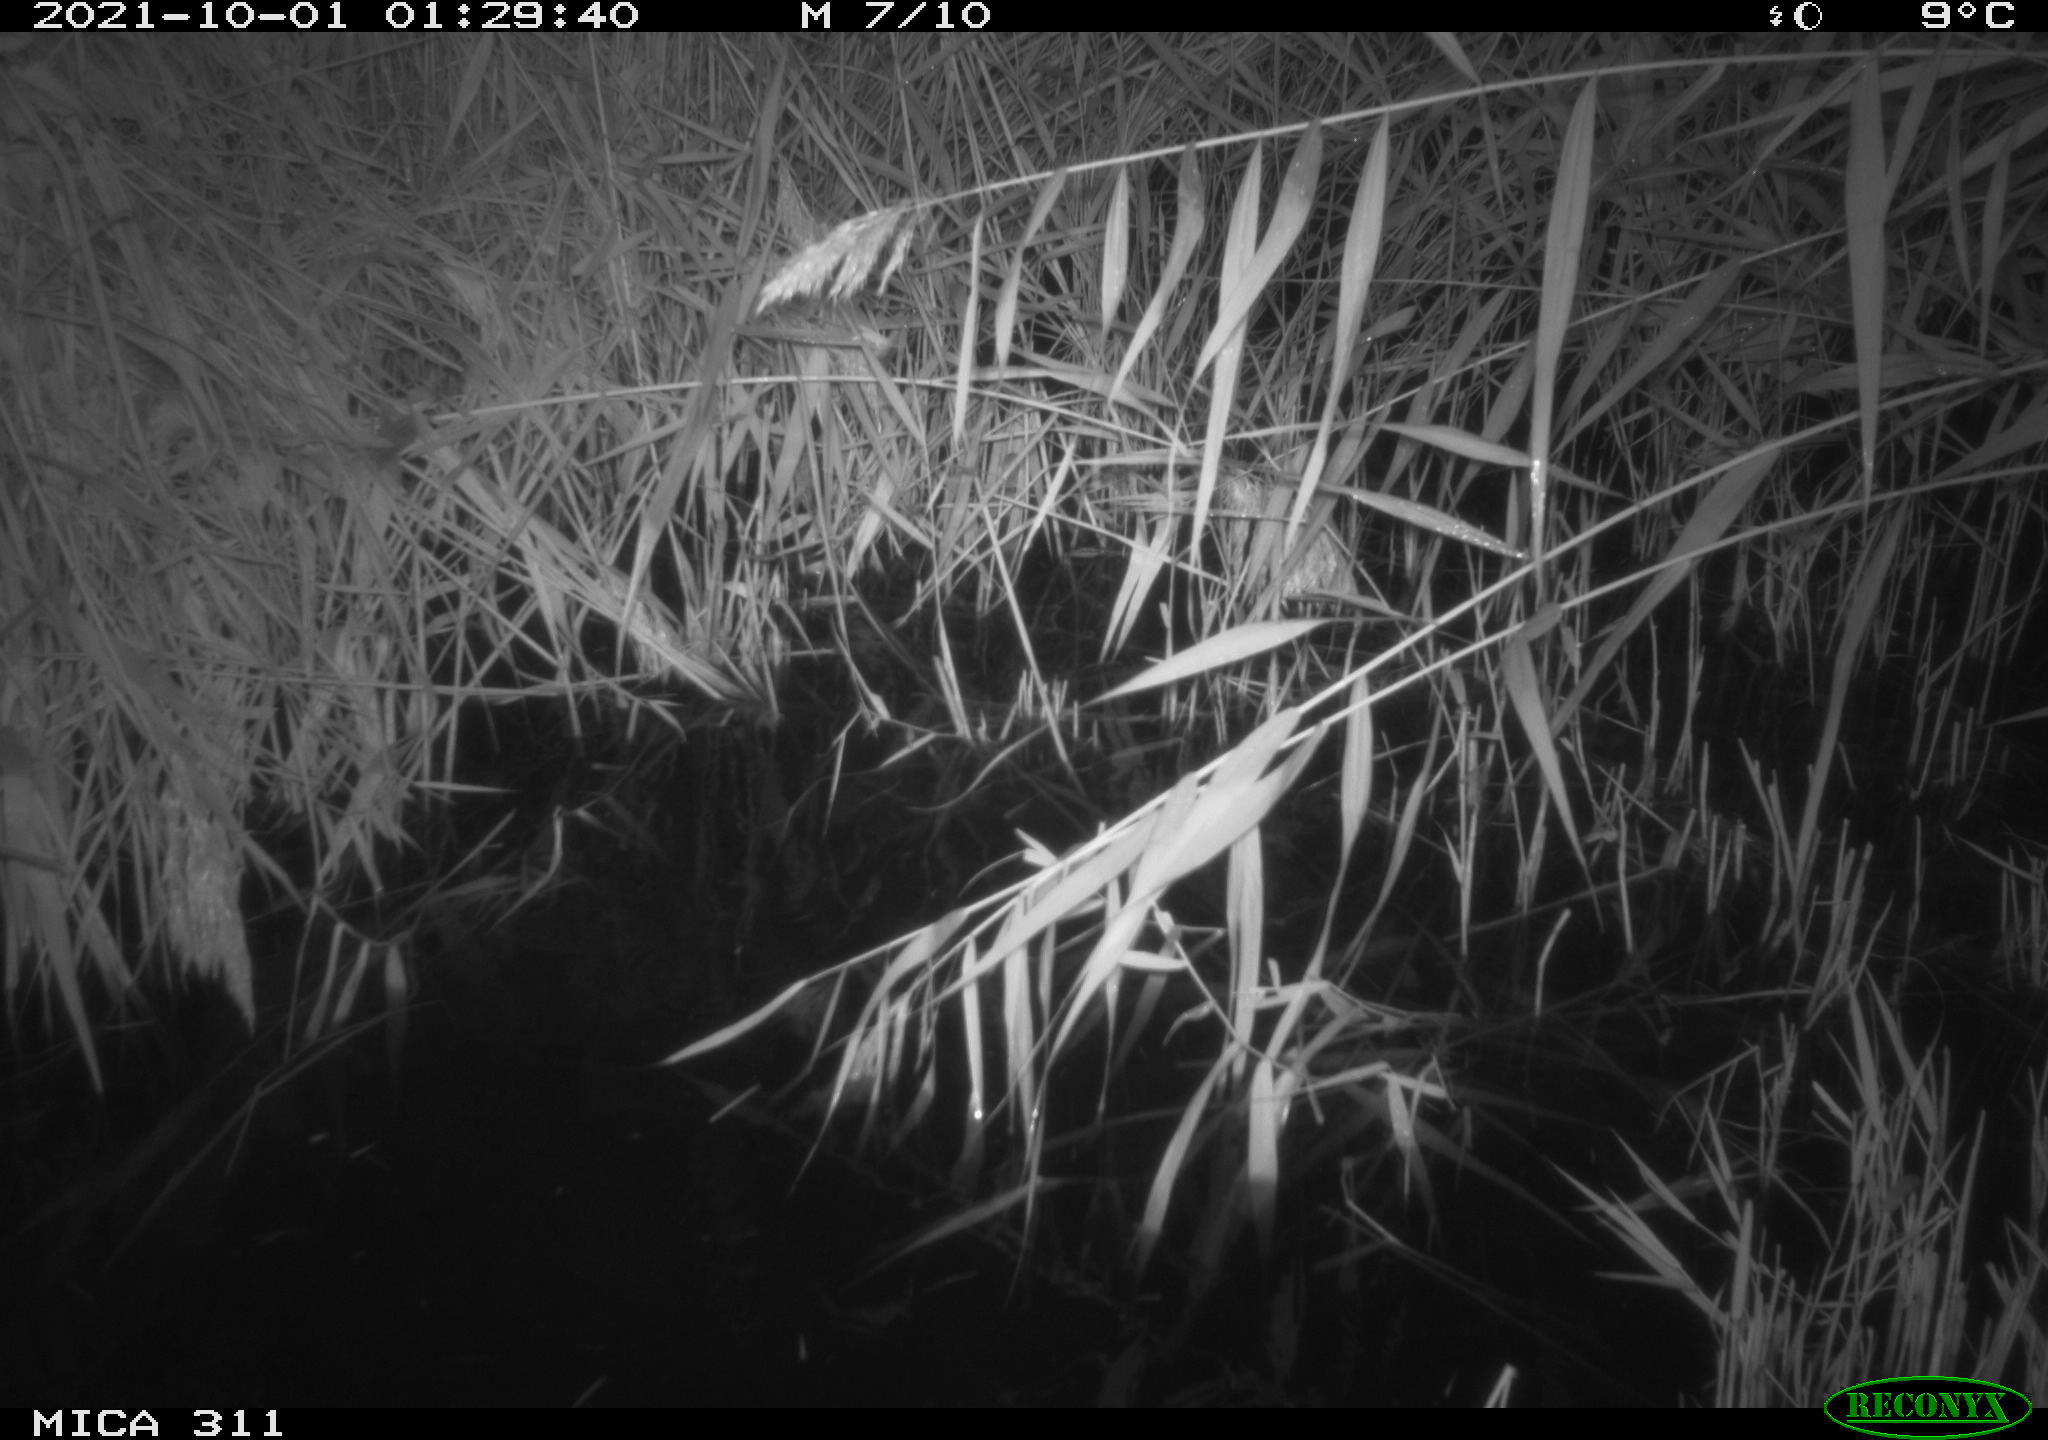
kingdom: Animalia
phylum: Chordata
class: Mammalia
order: Rodentia
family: Muridae
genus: Rattus
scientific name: Rattus norvegicus
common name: Brown rat
